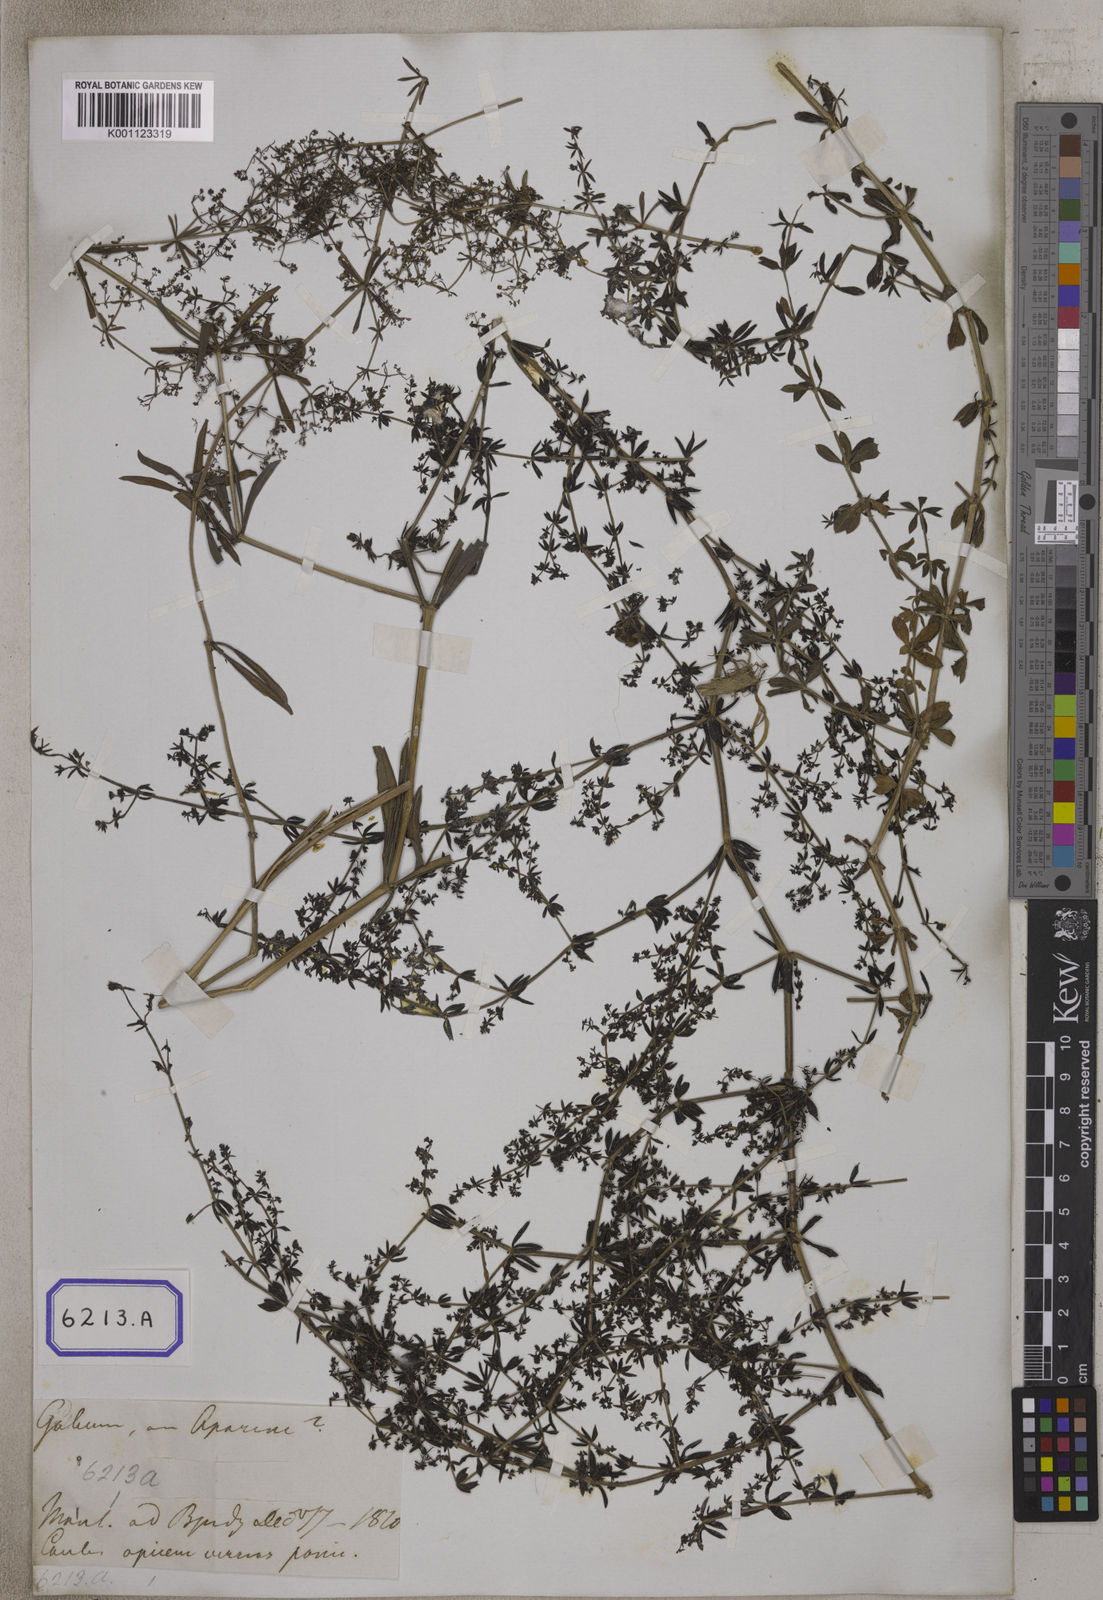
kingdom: Plantae
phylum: Tracheophyta
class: Magnoliopsida
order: Gentianales
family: Rubiaceae
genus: Galium
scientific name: Galium aparine
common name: Cleavers
